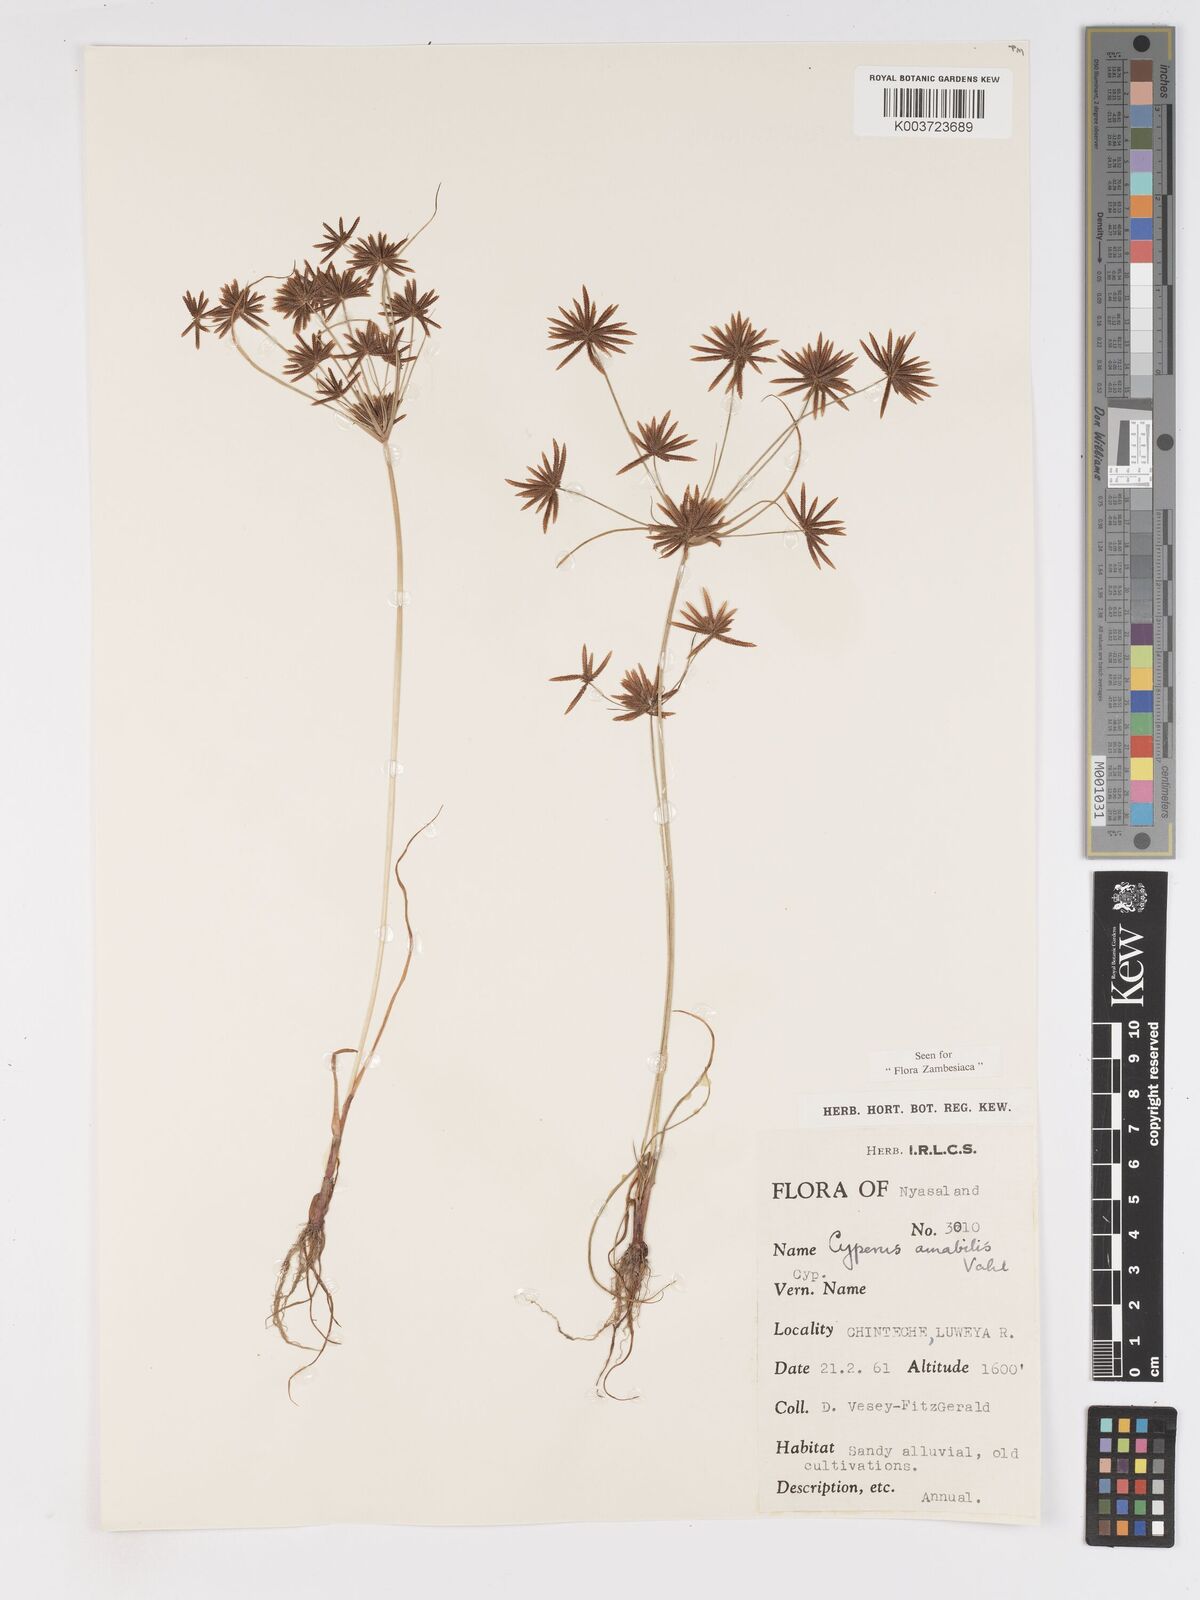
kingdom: Plantae
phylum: Tracheophyta
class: Liliopsida
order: Poales
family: Cyperaceae
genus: Cyperus
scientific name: Cyperus amabilis
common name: Foothill flat sedge
